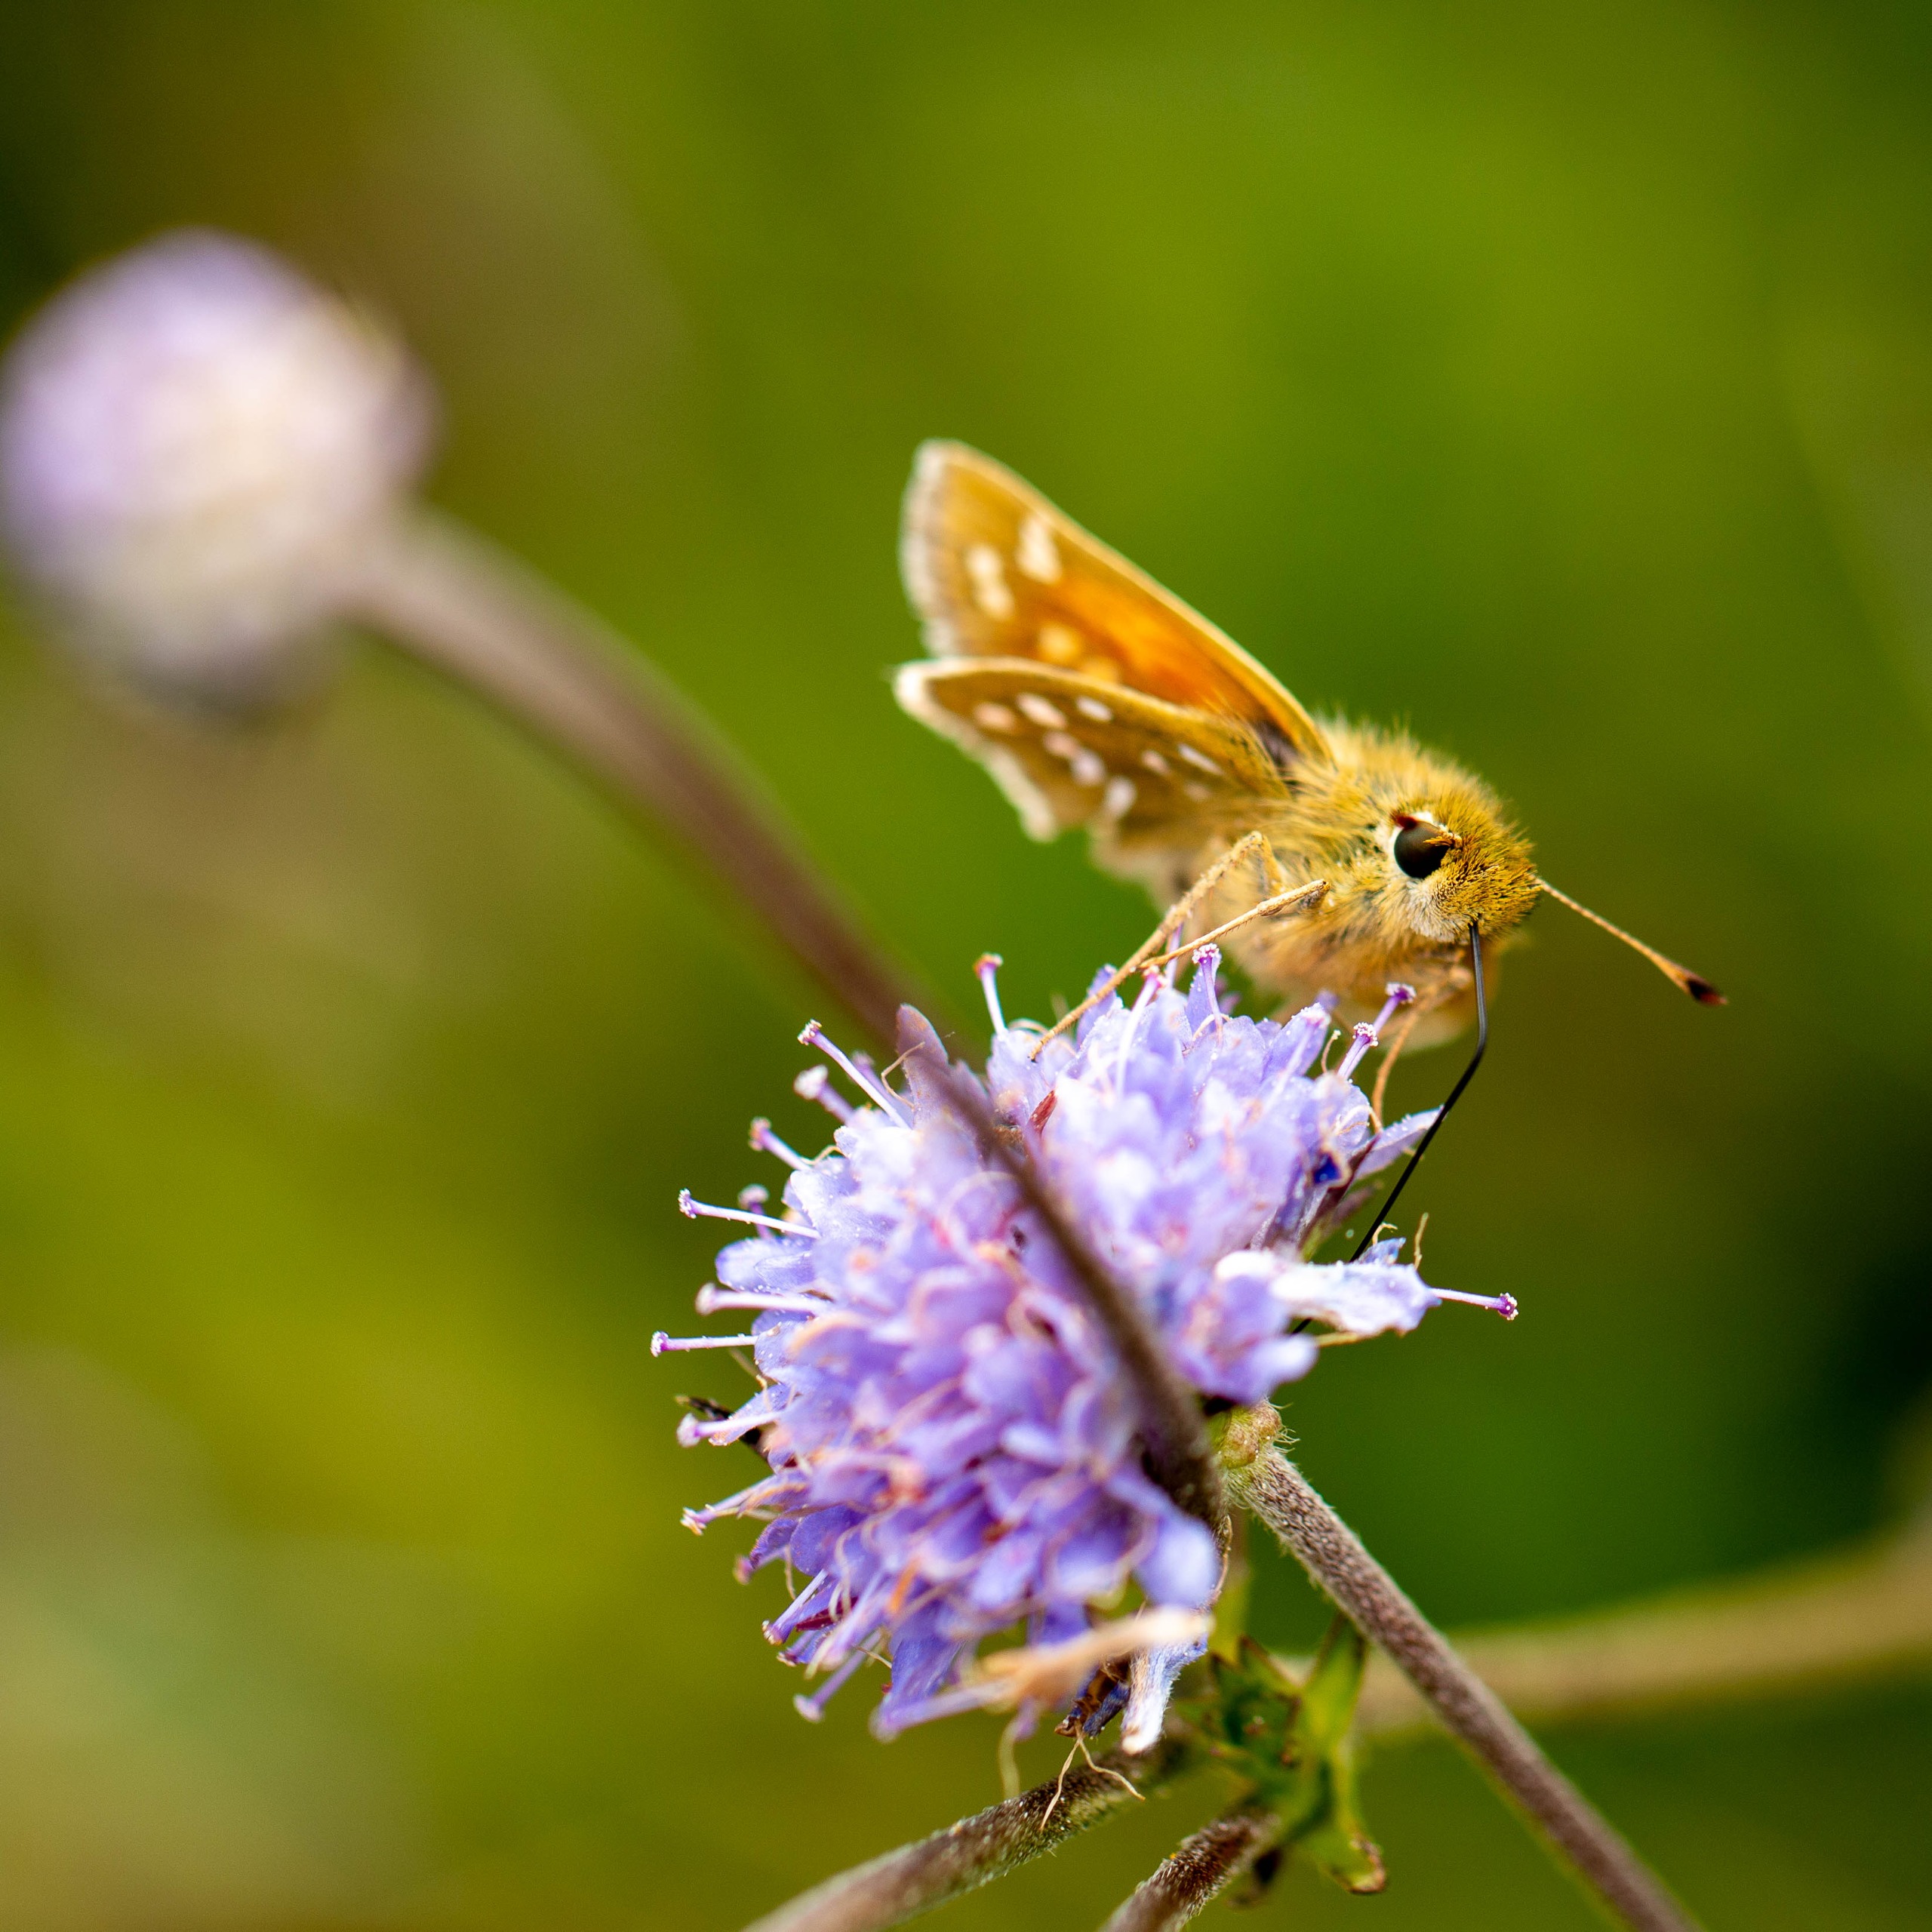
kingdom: Animalia
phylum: Arthropoda
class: Insecta
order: Lepidoptera
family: Hesperiidae
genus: Hesperia
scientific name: Hesperia comma
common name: Kommabredpande
